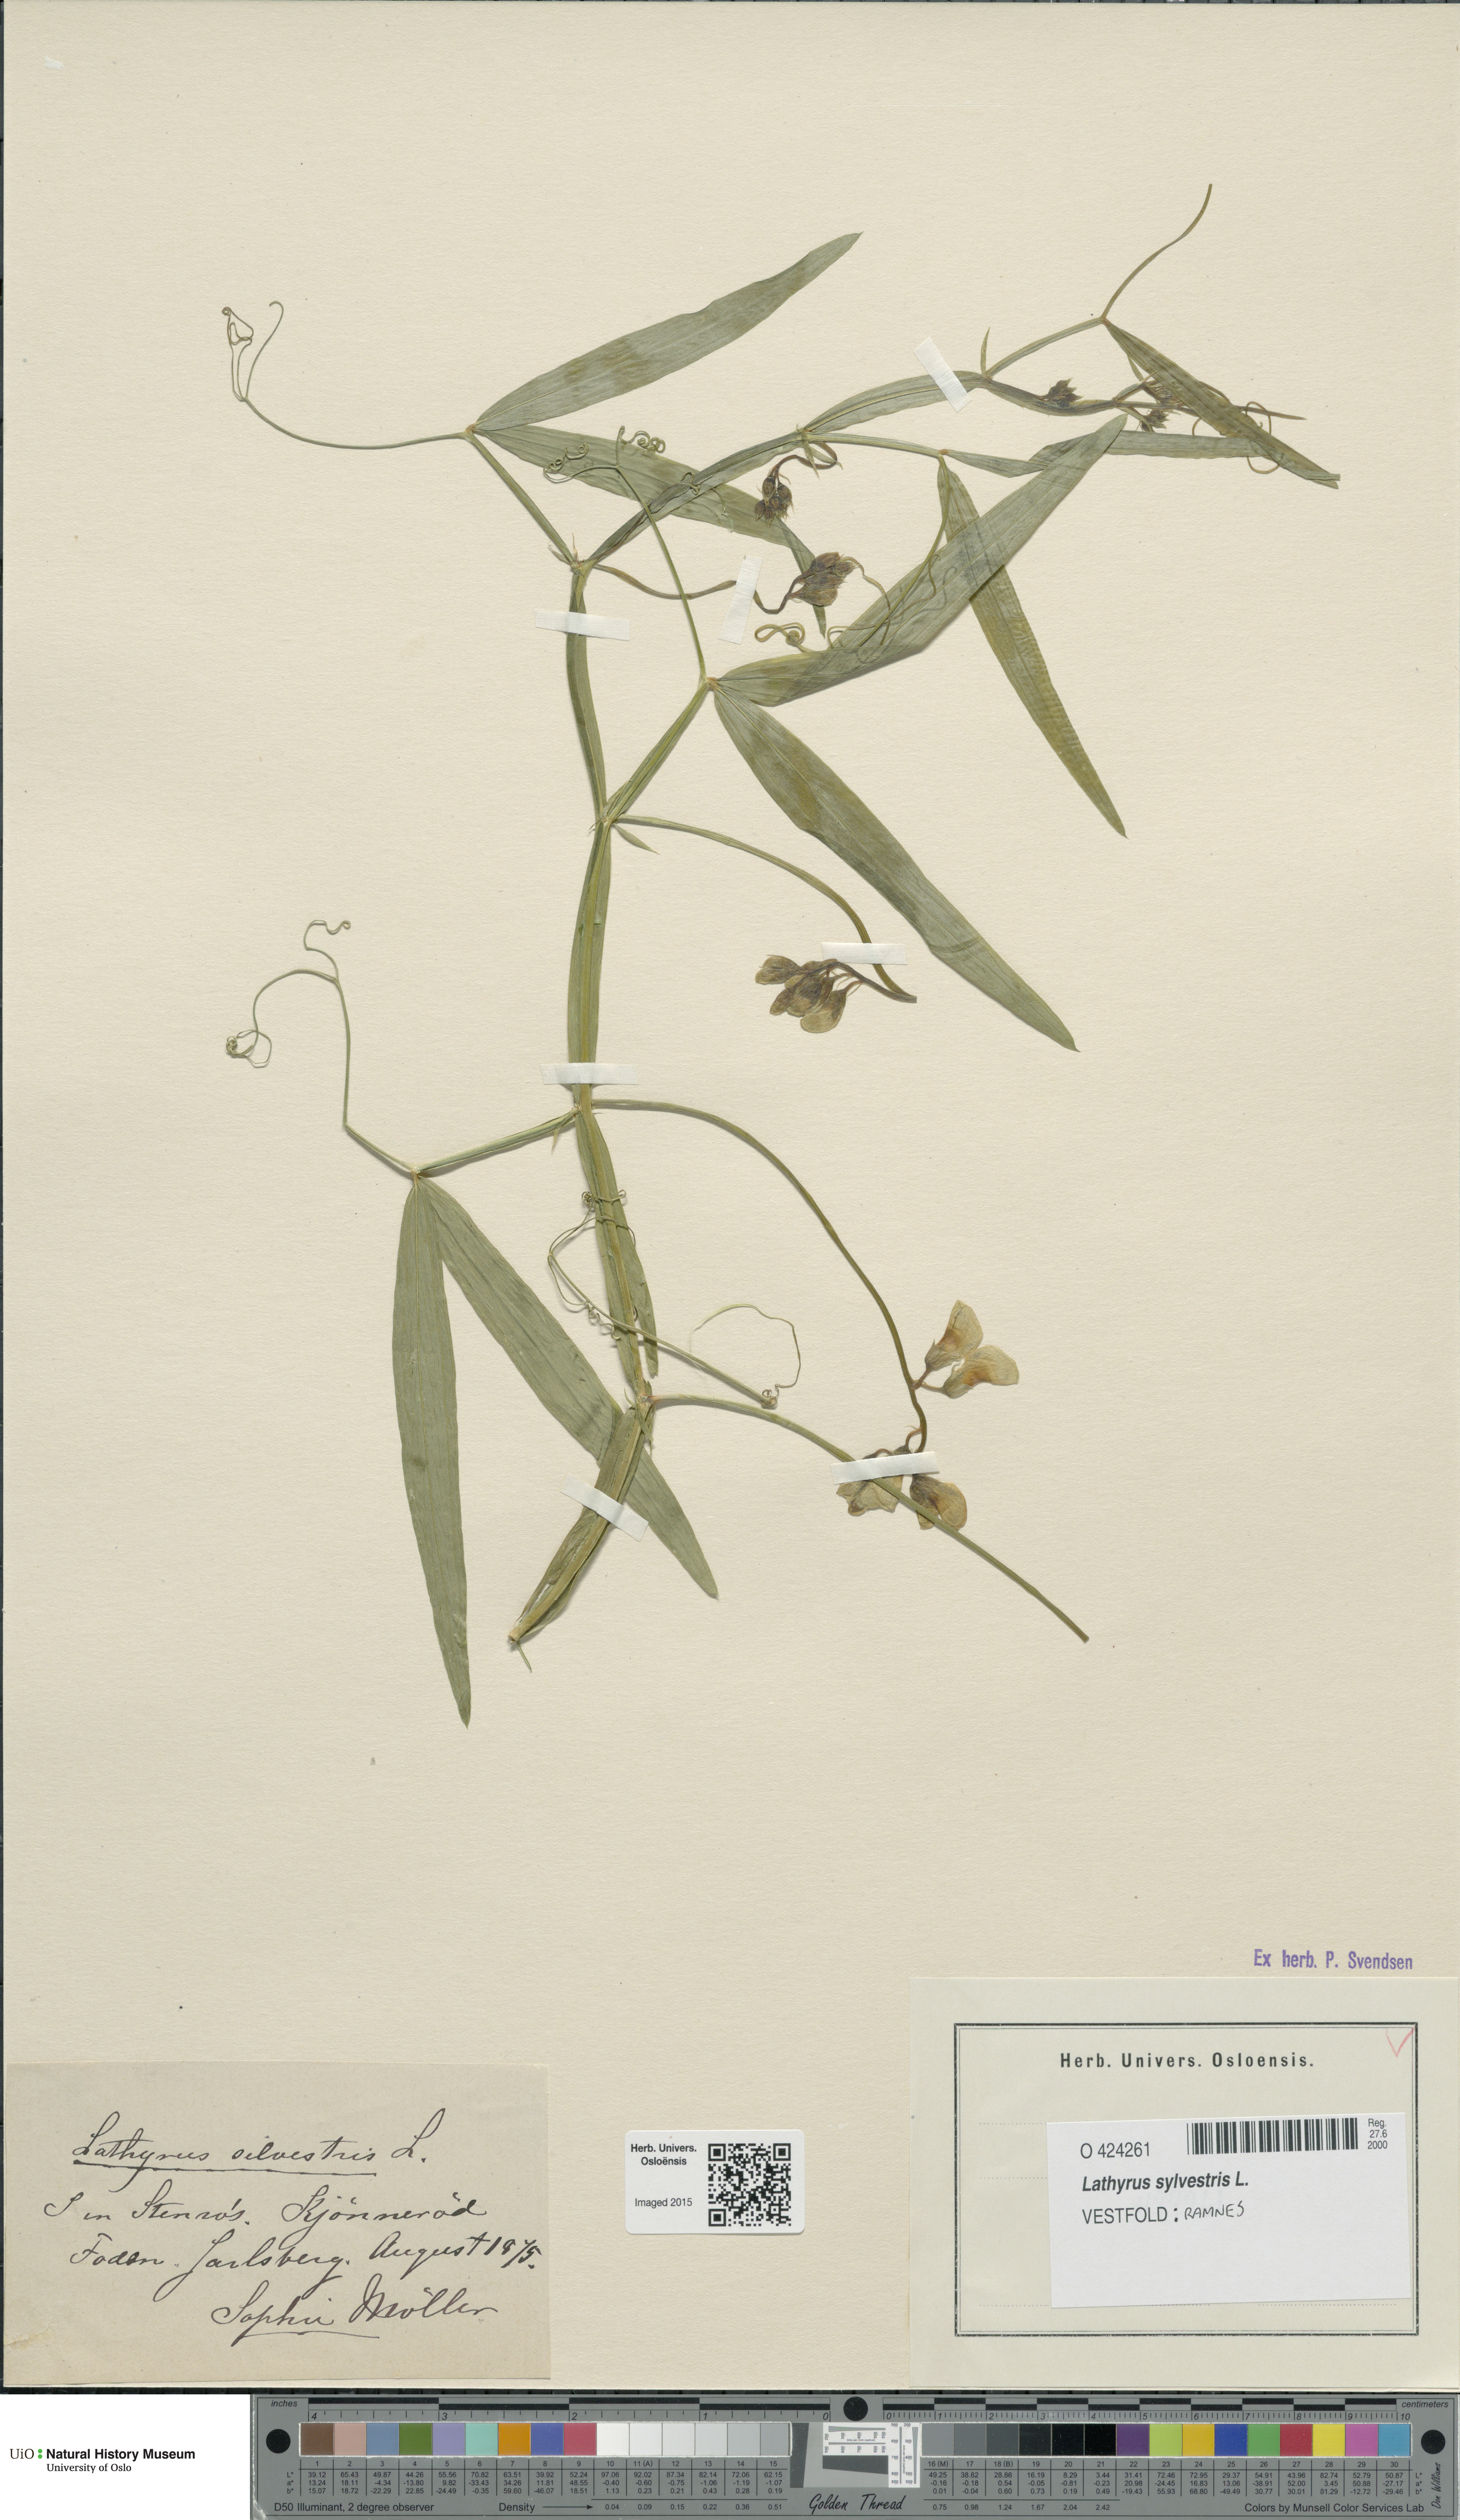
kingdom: Plantae
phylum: Tracheophyta
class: Magnoliopsida
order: Fabales
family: Fabaceae
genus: Lathyrus
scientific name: Lathyrus sylvestris
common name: Flat pea
